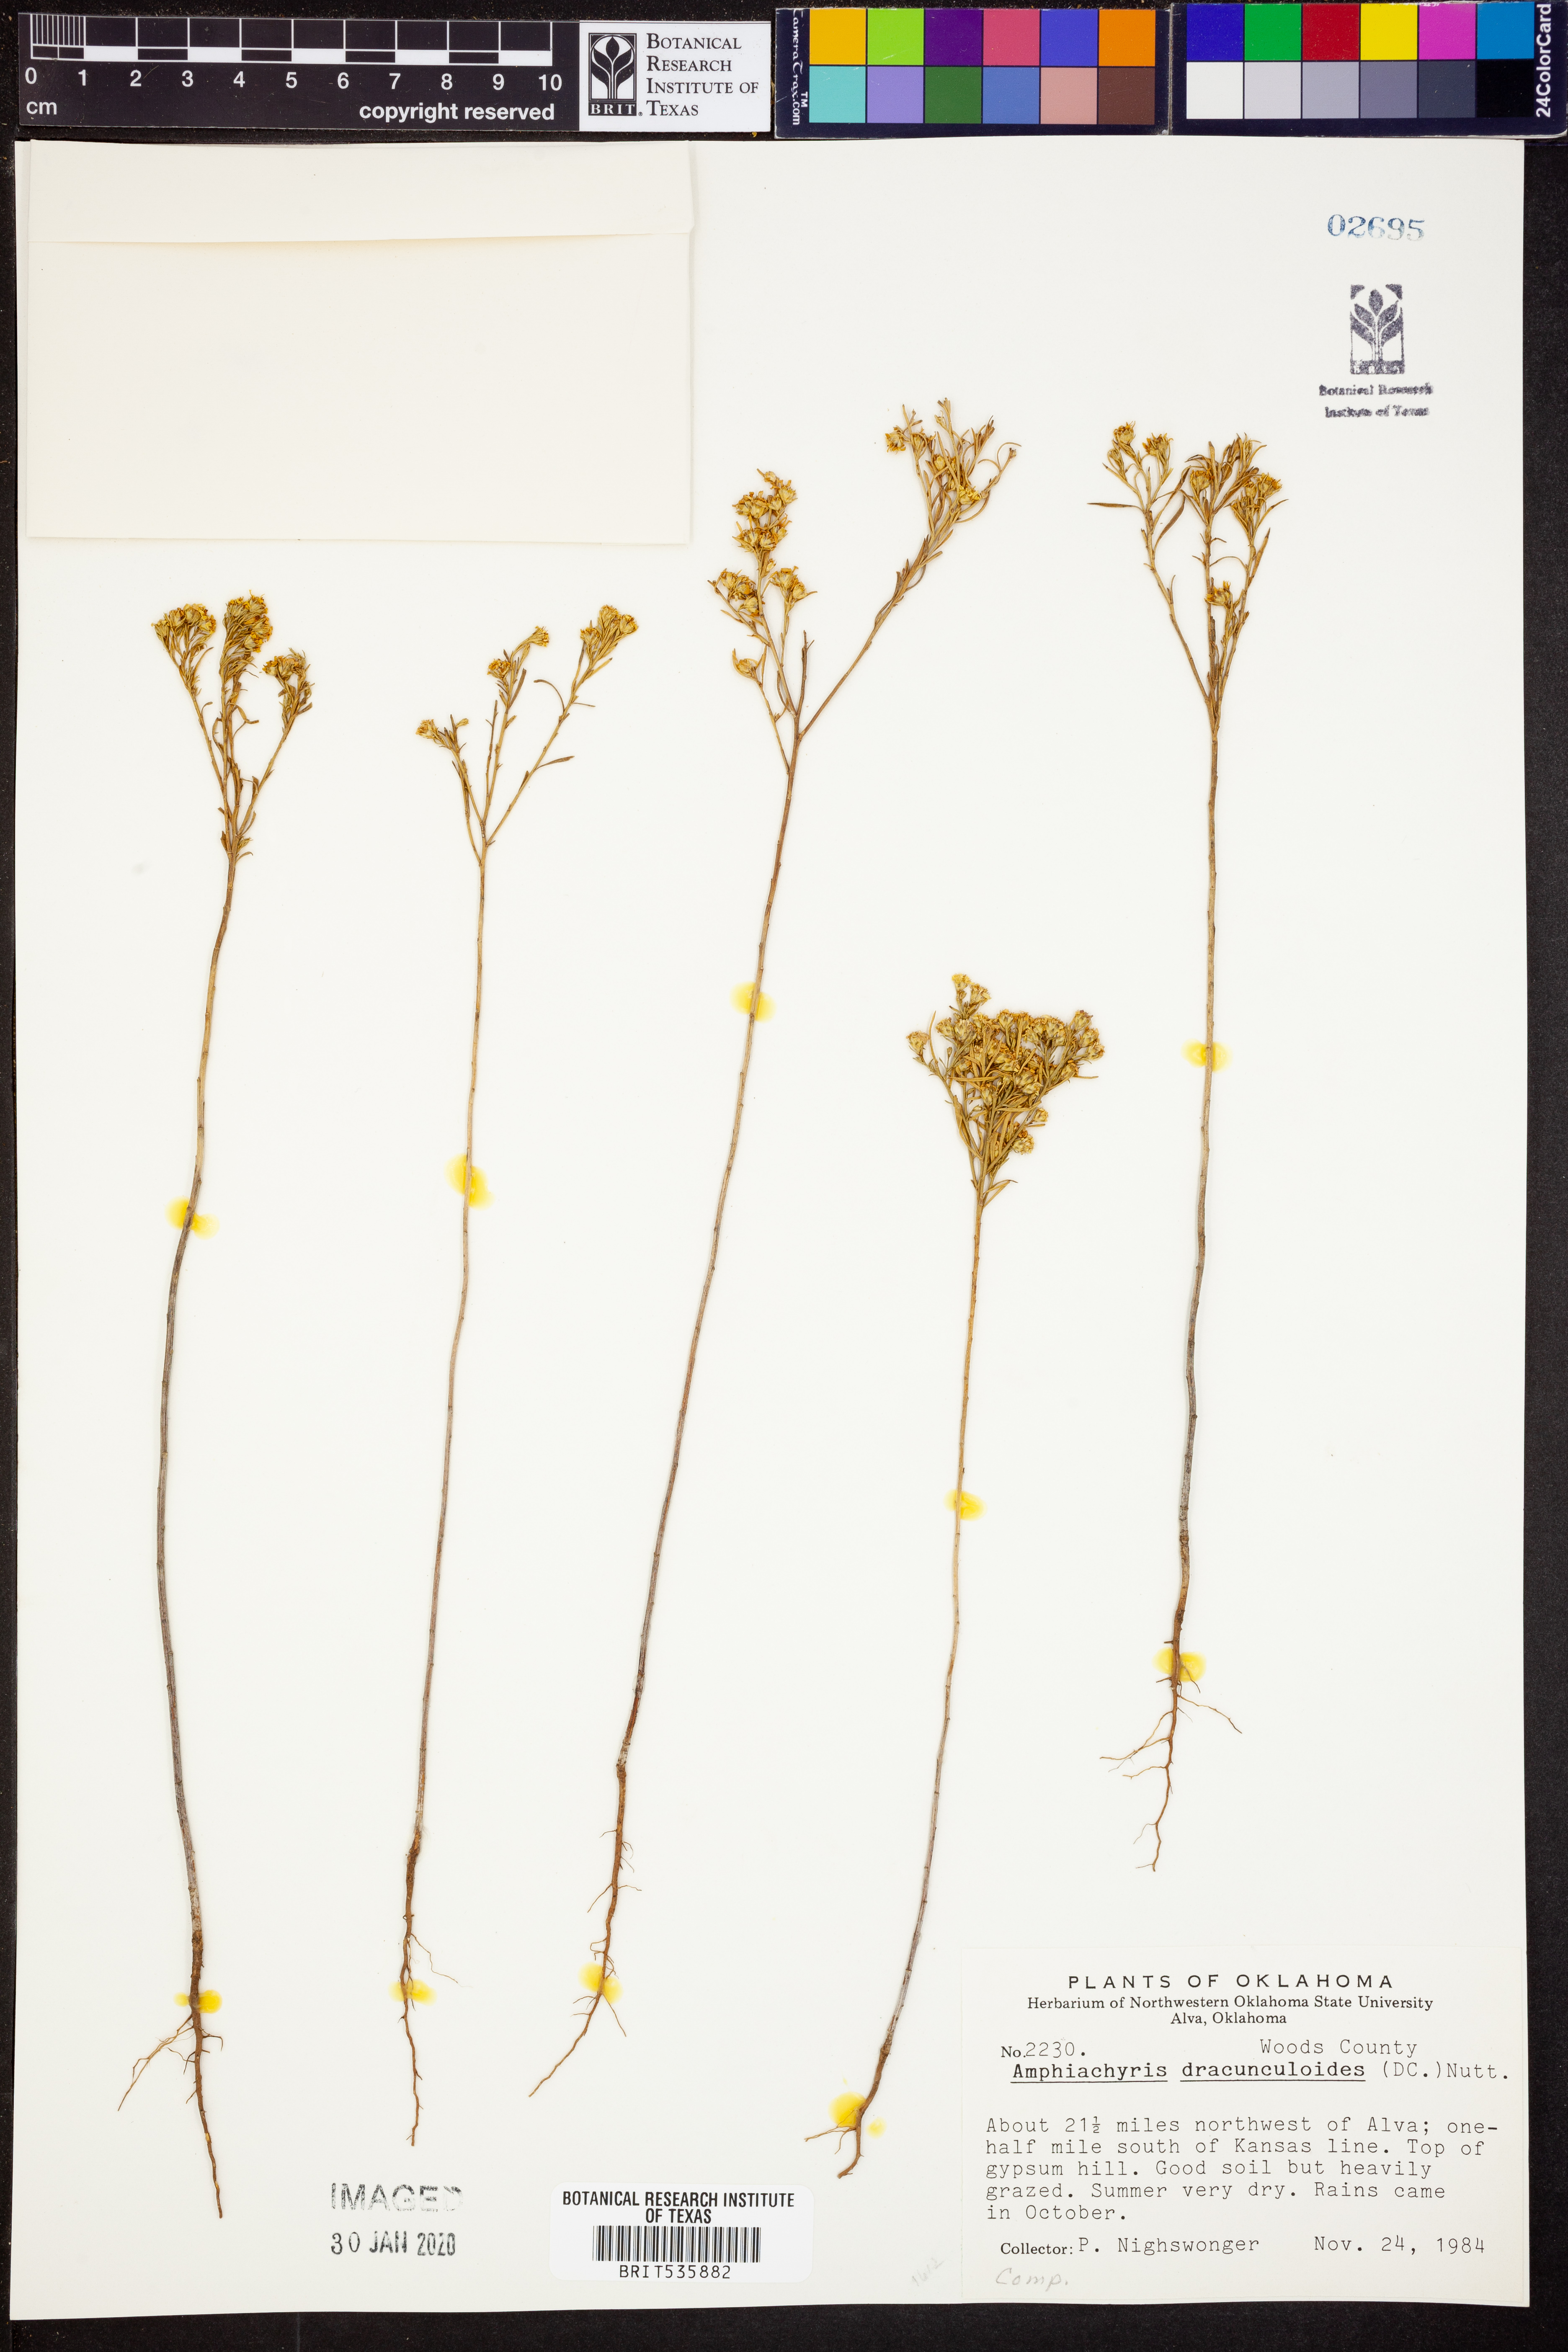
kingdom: Plantae
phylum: Tracheophyta
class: Magnoliopsida
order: Asterales
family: Asteraceae
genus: Amphiachyris
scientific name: Amphiachyris dracunculoides
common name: Broomweed
